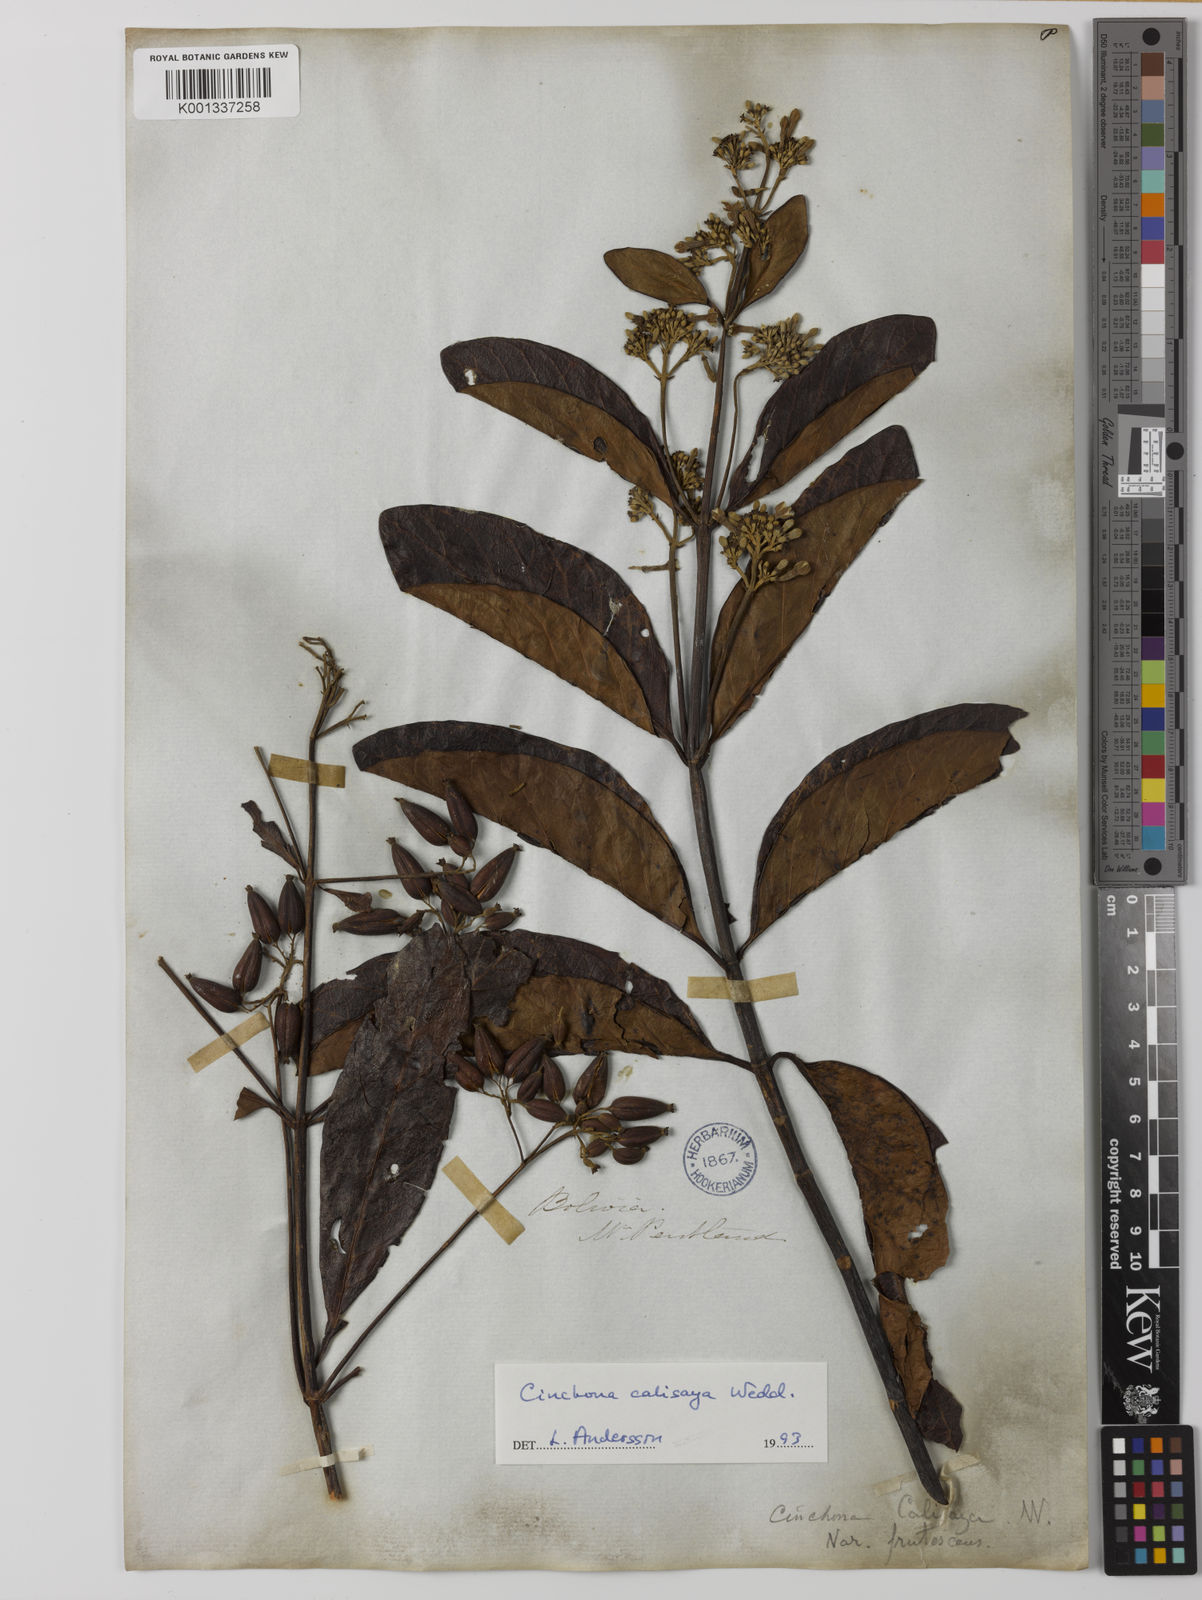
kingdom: Plantae
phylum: Tracheophyta
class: Magnoliopsida
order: Gentianales
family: Rubiaceae
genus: Cinchona
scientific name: Cinchona calisaya
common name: Ledgerbark
